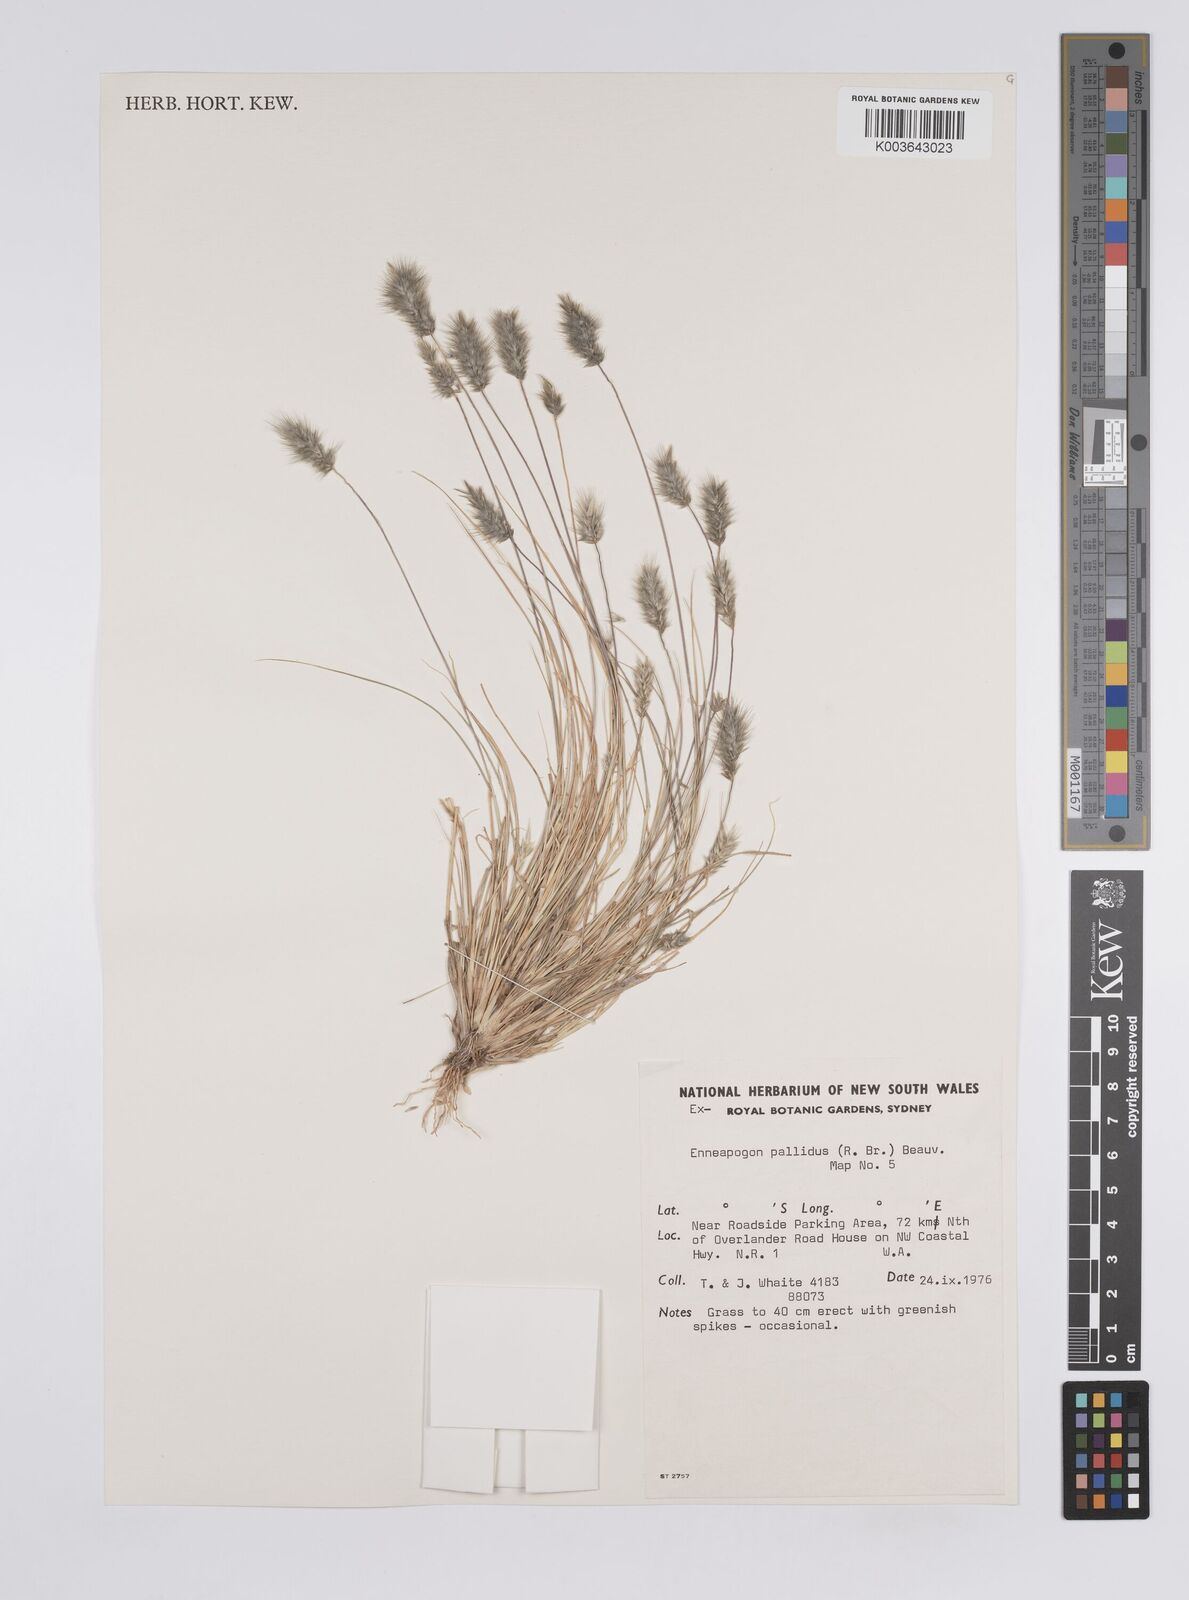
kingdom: Plantae
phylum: Tracheophyta
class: Liliopsida
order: Poales
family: Poaceae
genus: Enneapogon
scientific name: Enneapogon pallidus
